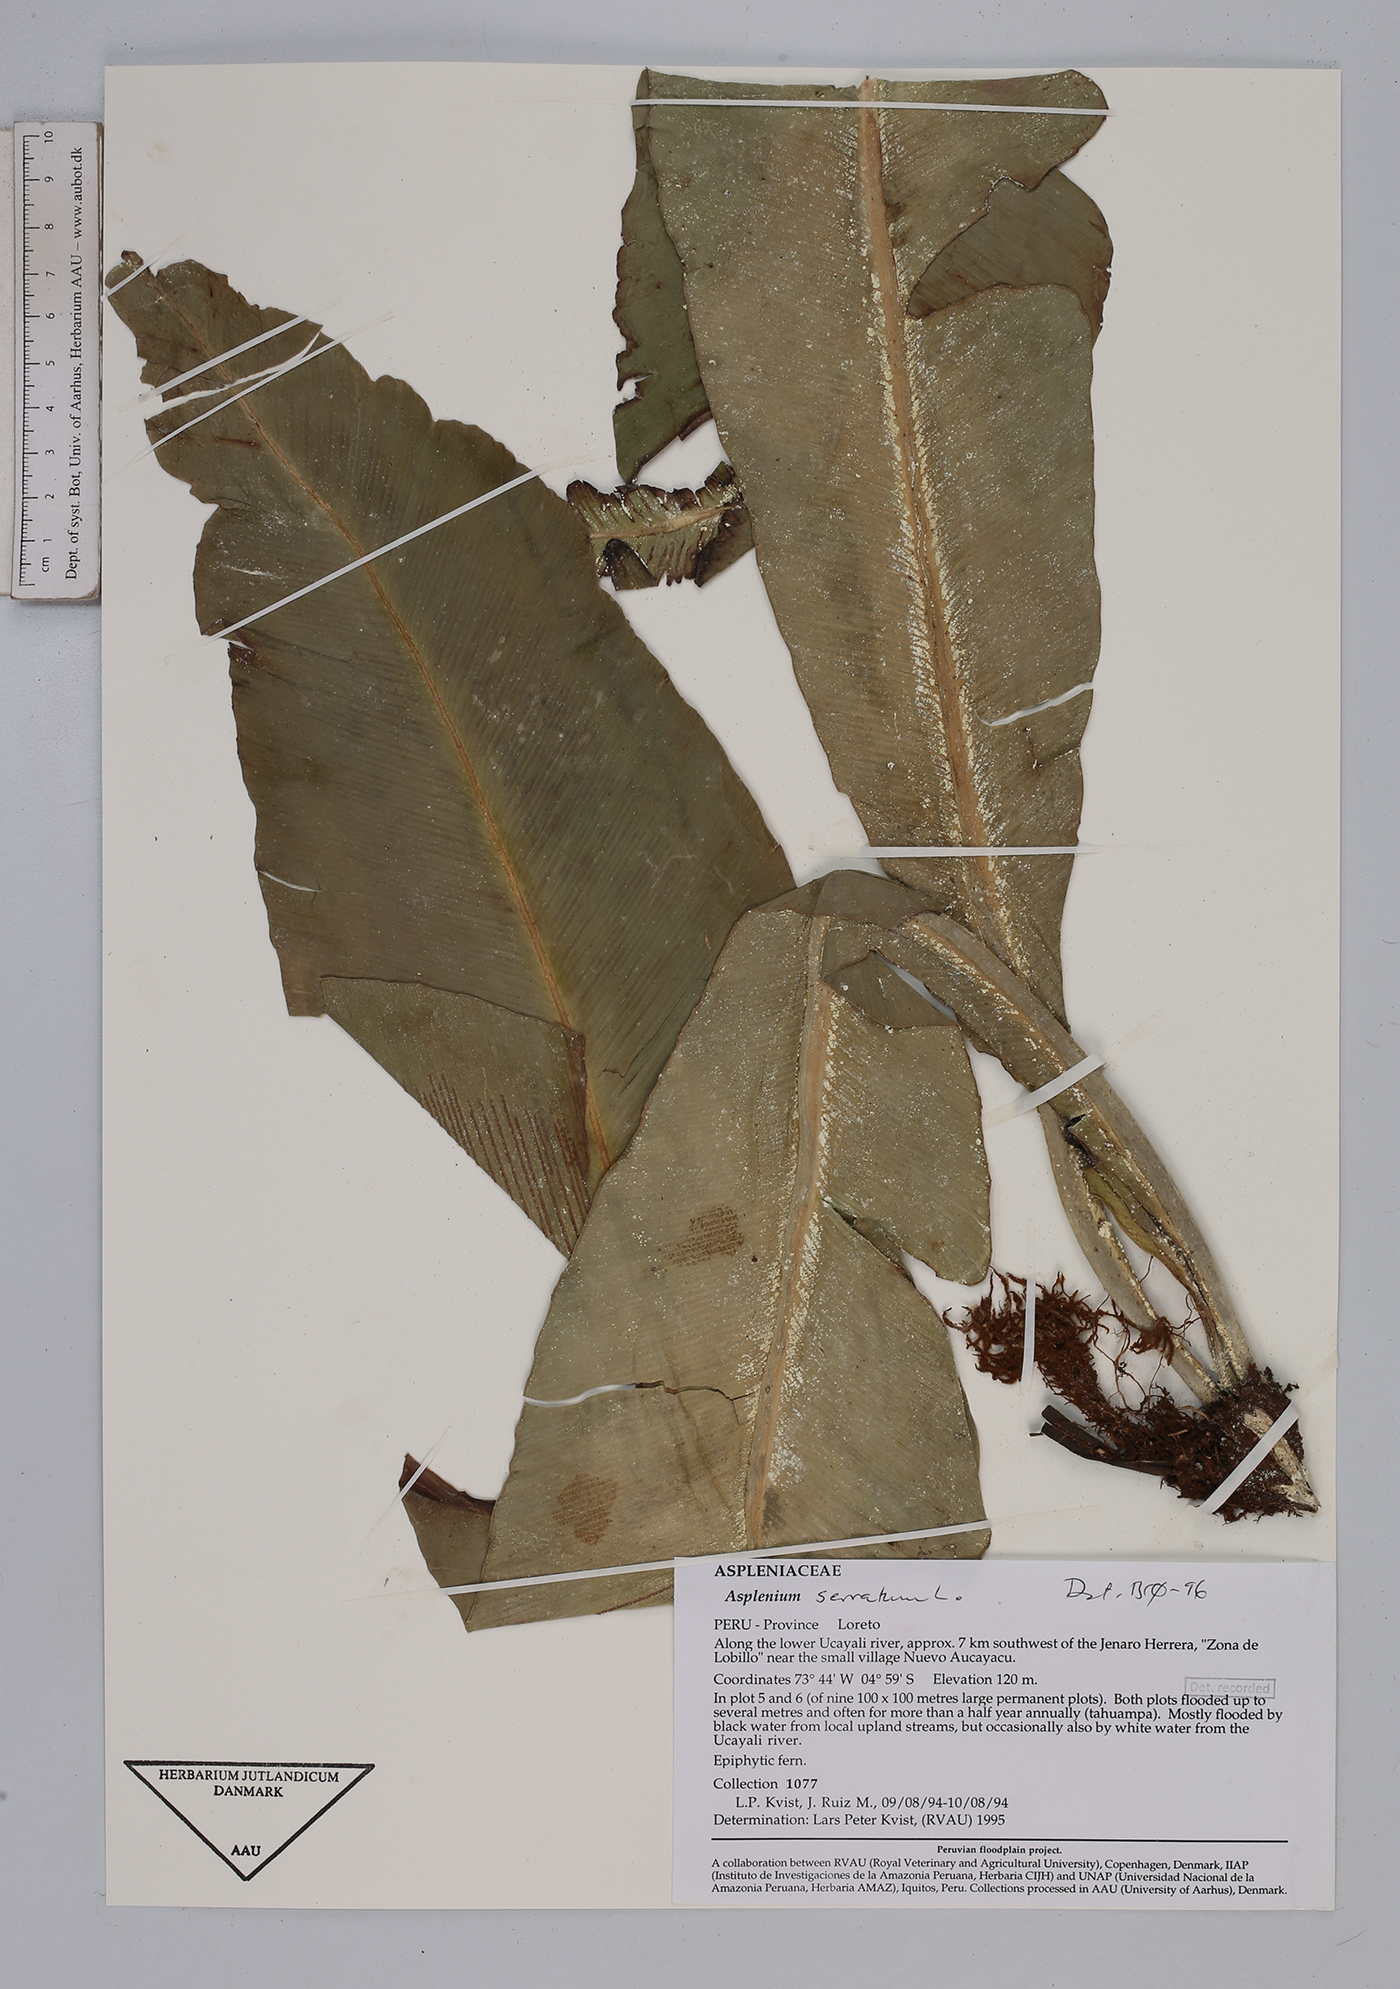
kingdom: Plantae
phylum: Tracheophyta
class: Polypodiopsida
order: Polypodiales
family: Aspleniaceae
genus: Asplenium
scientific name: Asplenium serratum
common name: Wild birdnest fern
